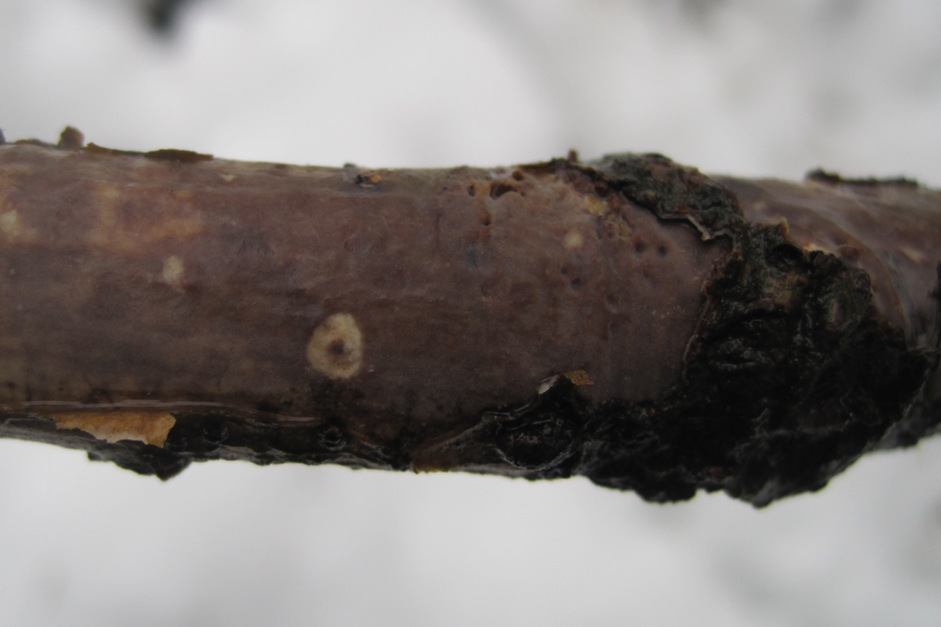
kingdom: Fungi
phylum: Basidiomycota
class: Agaricomycetes
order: Corticiales
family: Vuilleminiaceae
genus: Vuilleminia
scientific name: Vuilleminia comedens
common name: almindelig barksprænger
